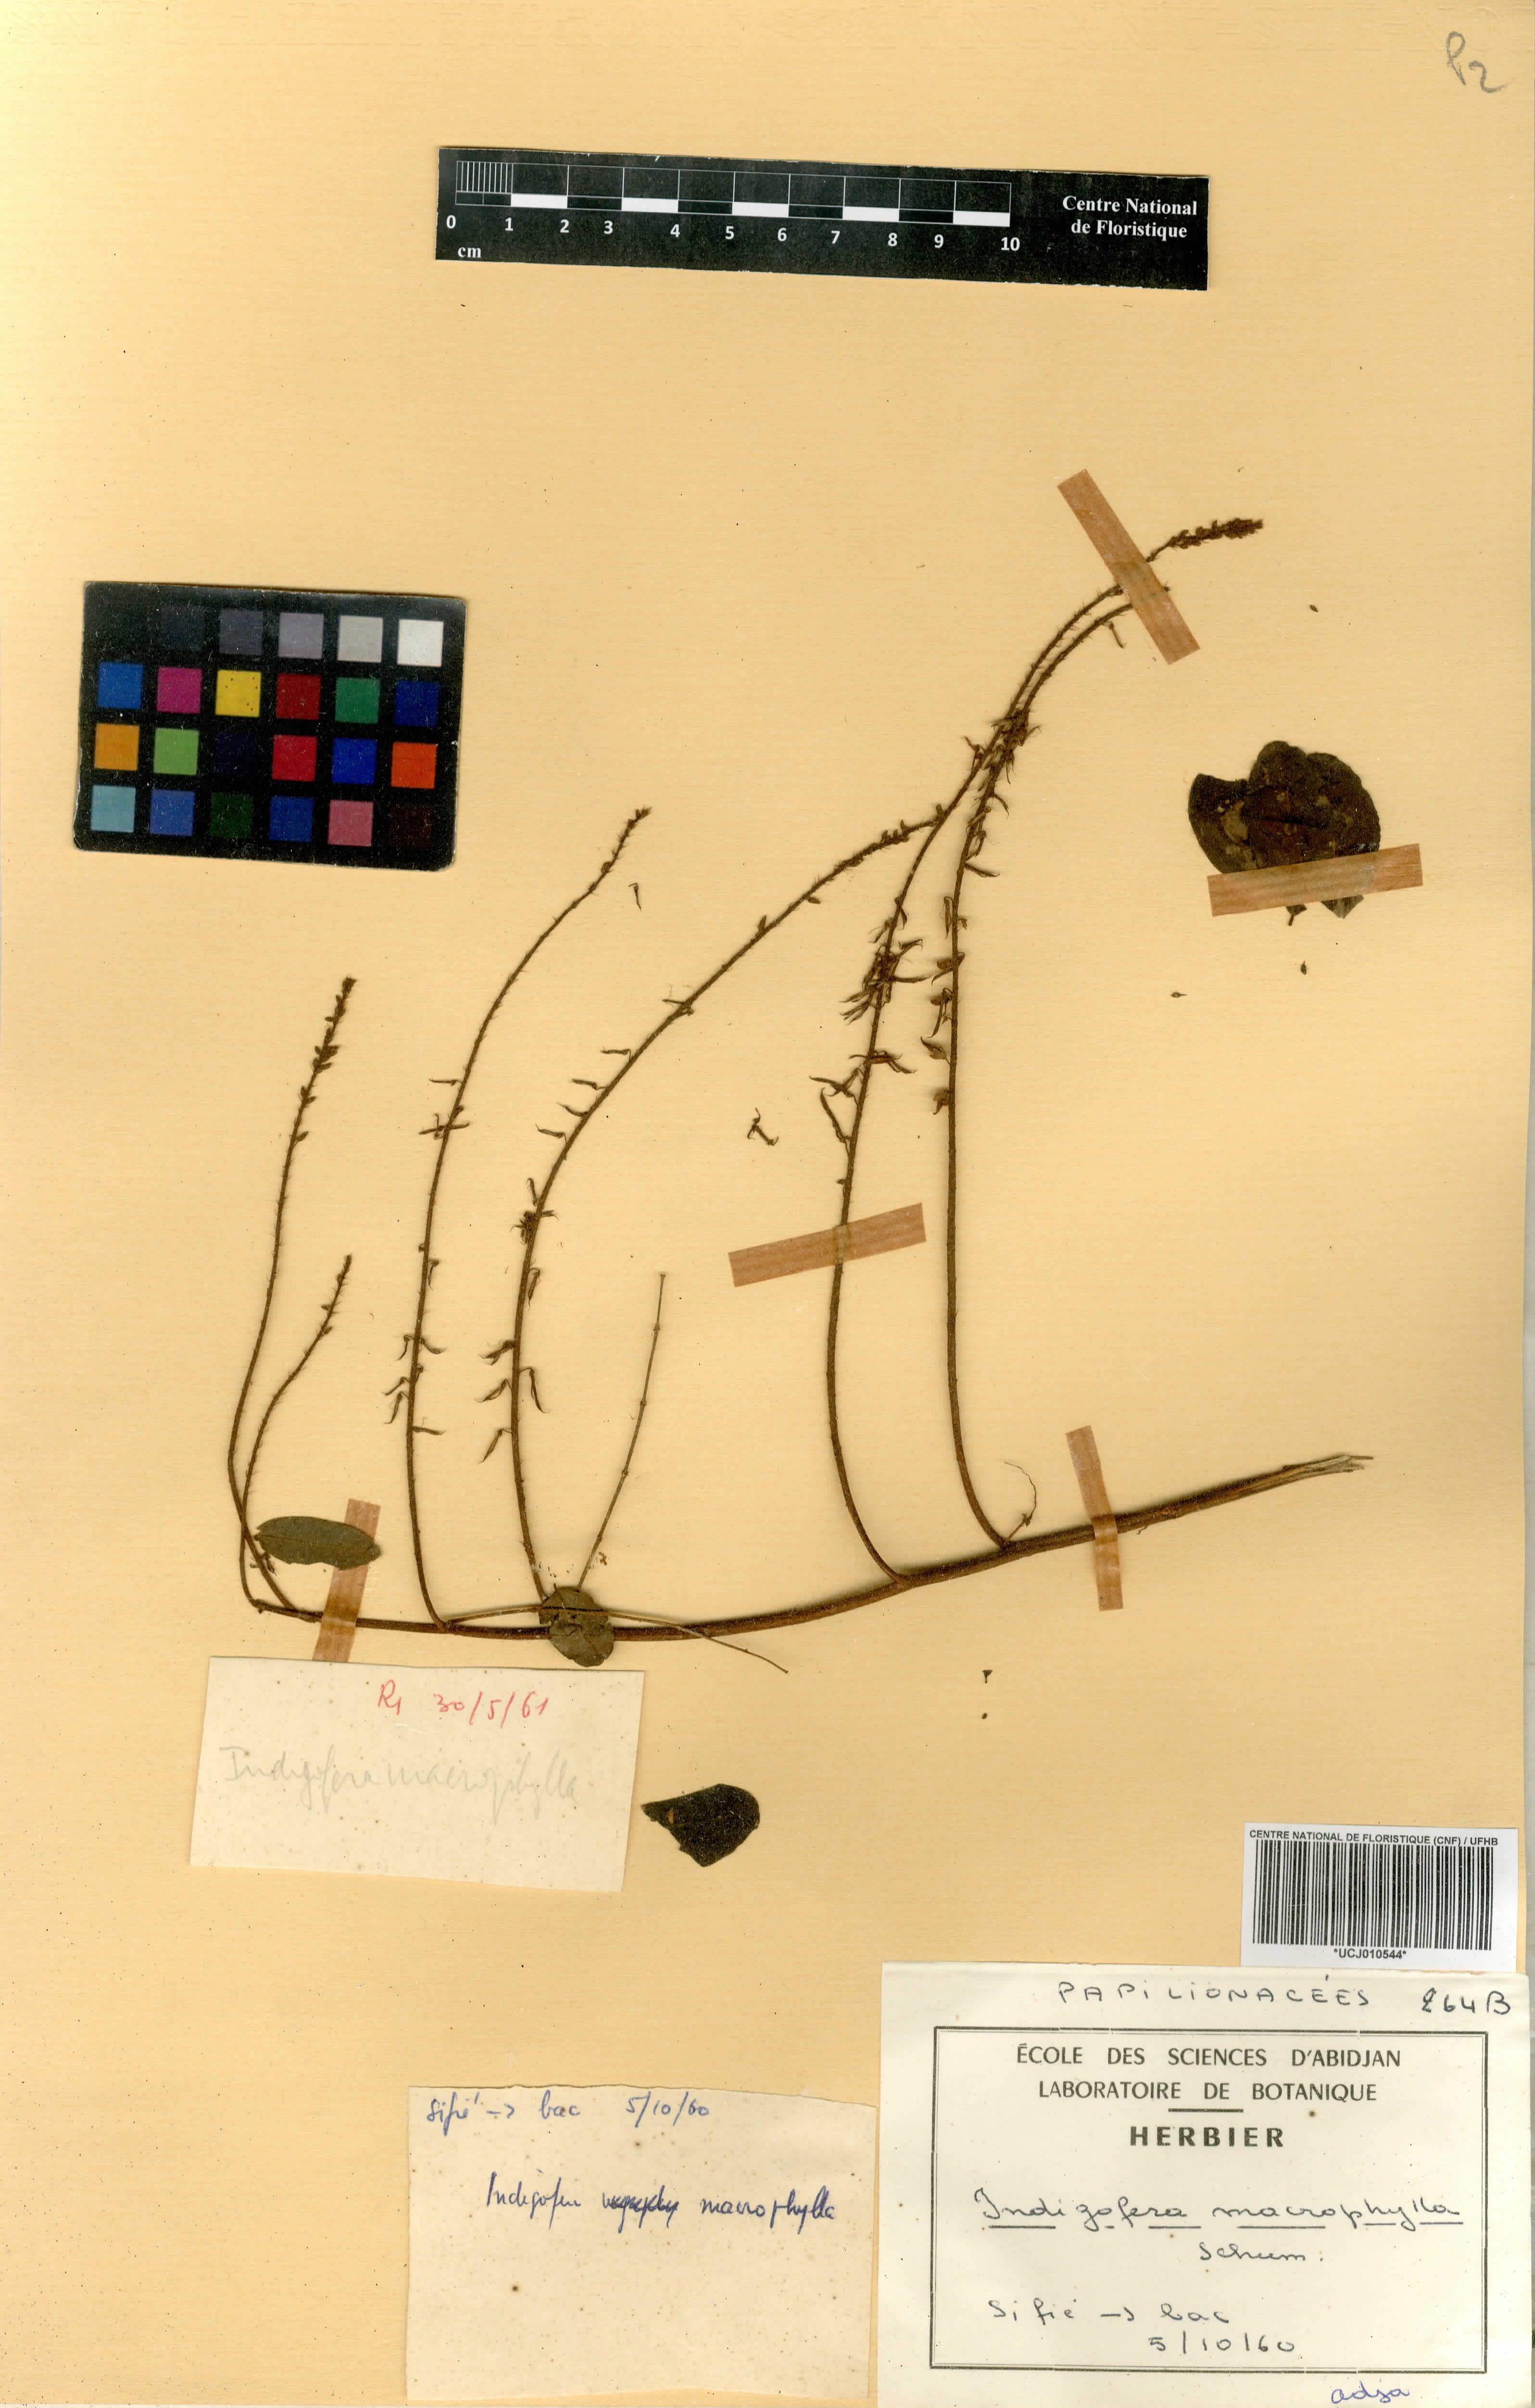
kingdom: Plantae
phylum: Tracheophyta
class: Magnoliopsida
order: Fabales
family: Fabaceae
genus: Indigofera
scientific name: Indigofera macrophylla
